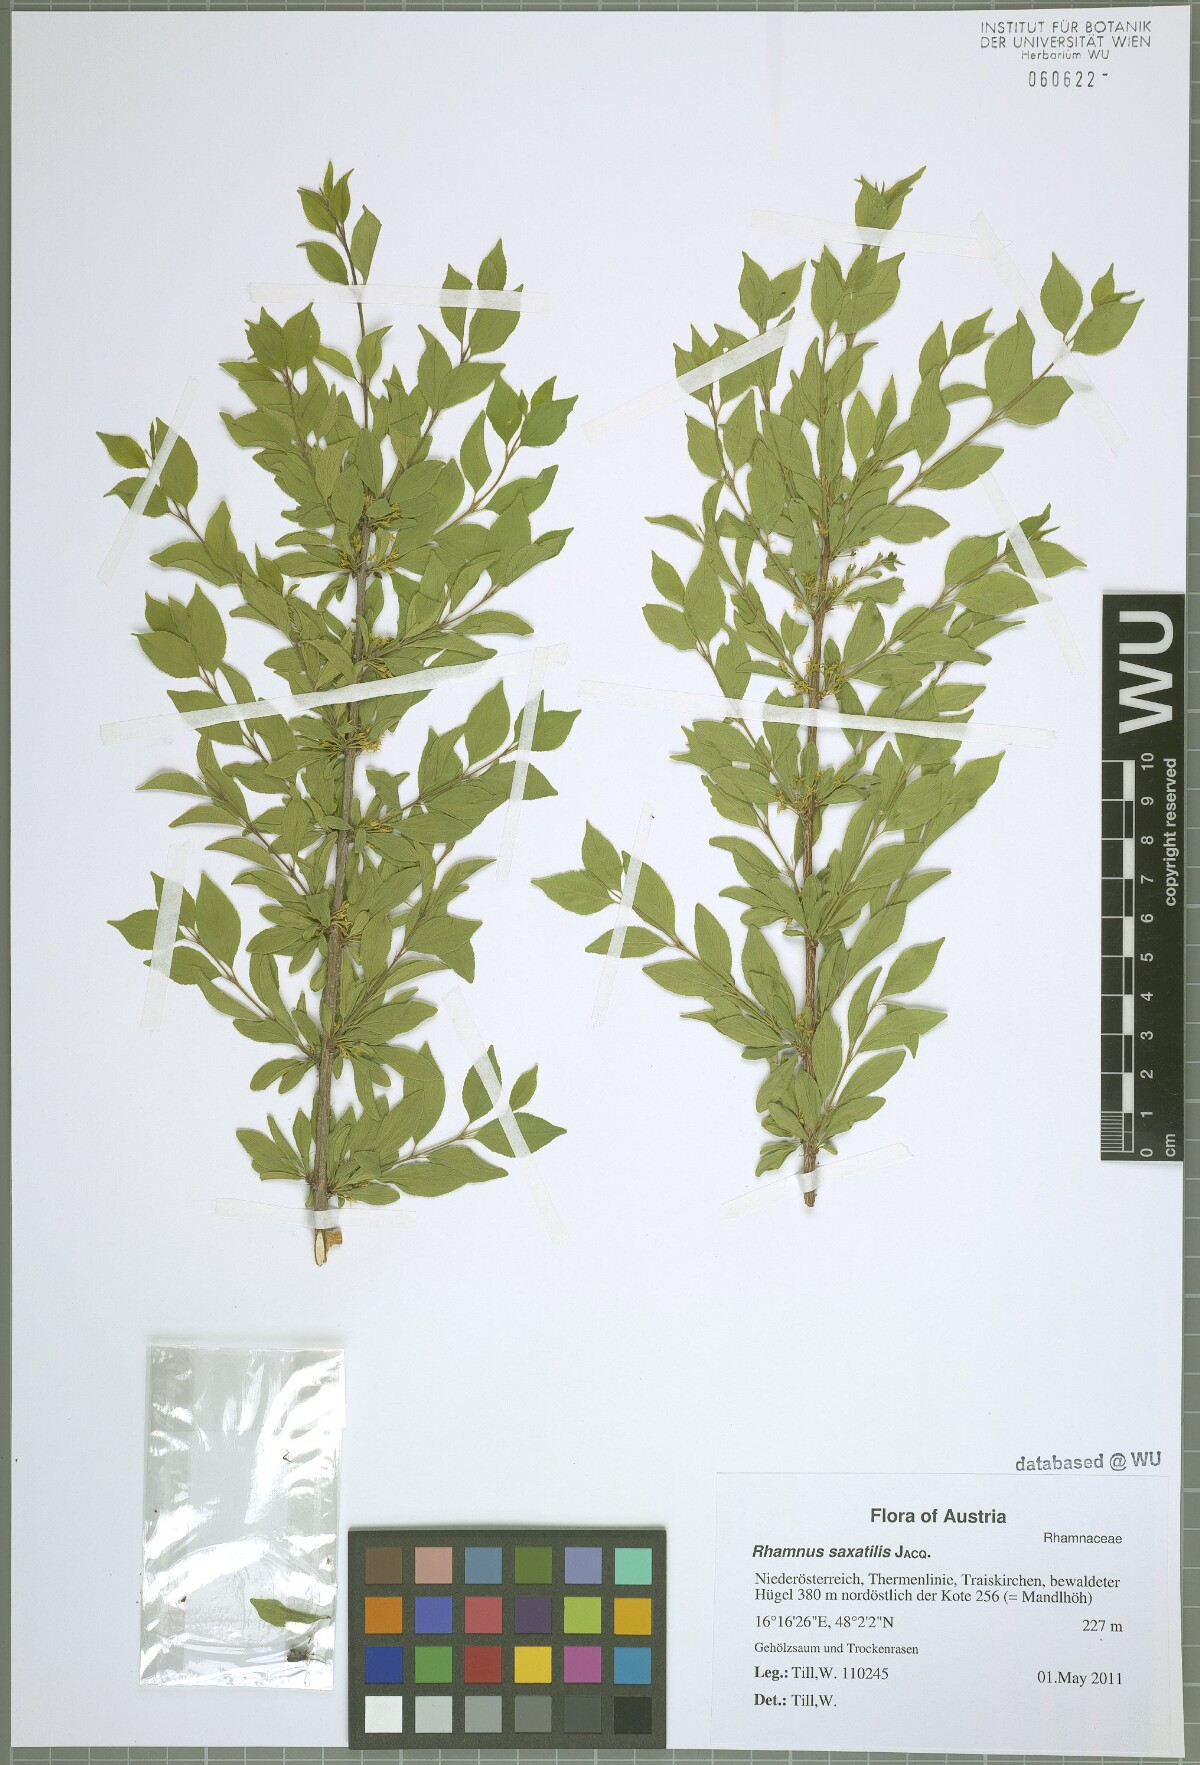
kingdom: Plantae
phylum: Tracheophyta
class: Magnoliopsida
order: Rosales
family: Rhamnaceae
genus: Rhamnus
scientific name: Rhamnus saxatilis
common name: Rock buckthorn
